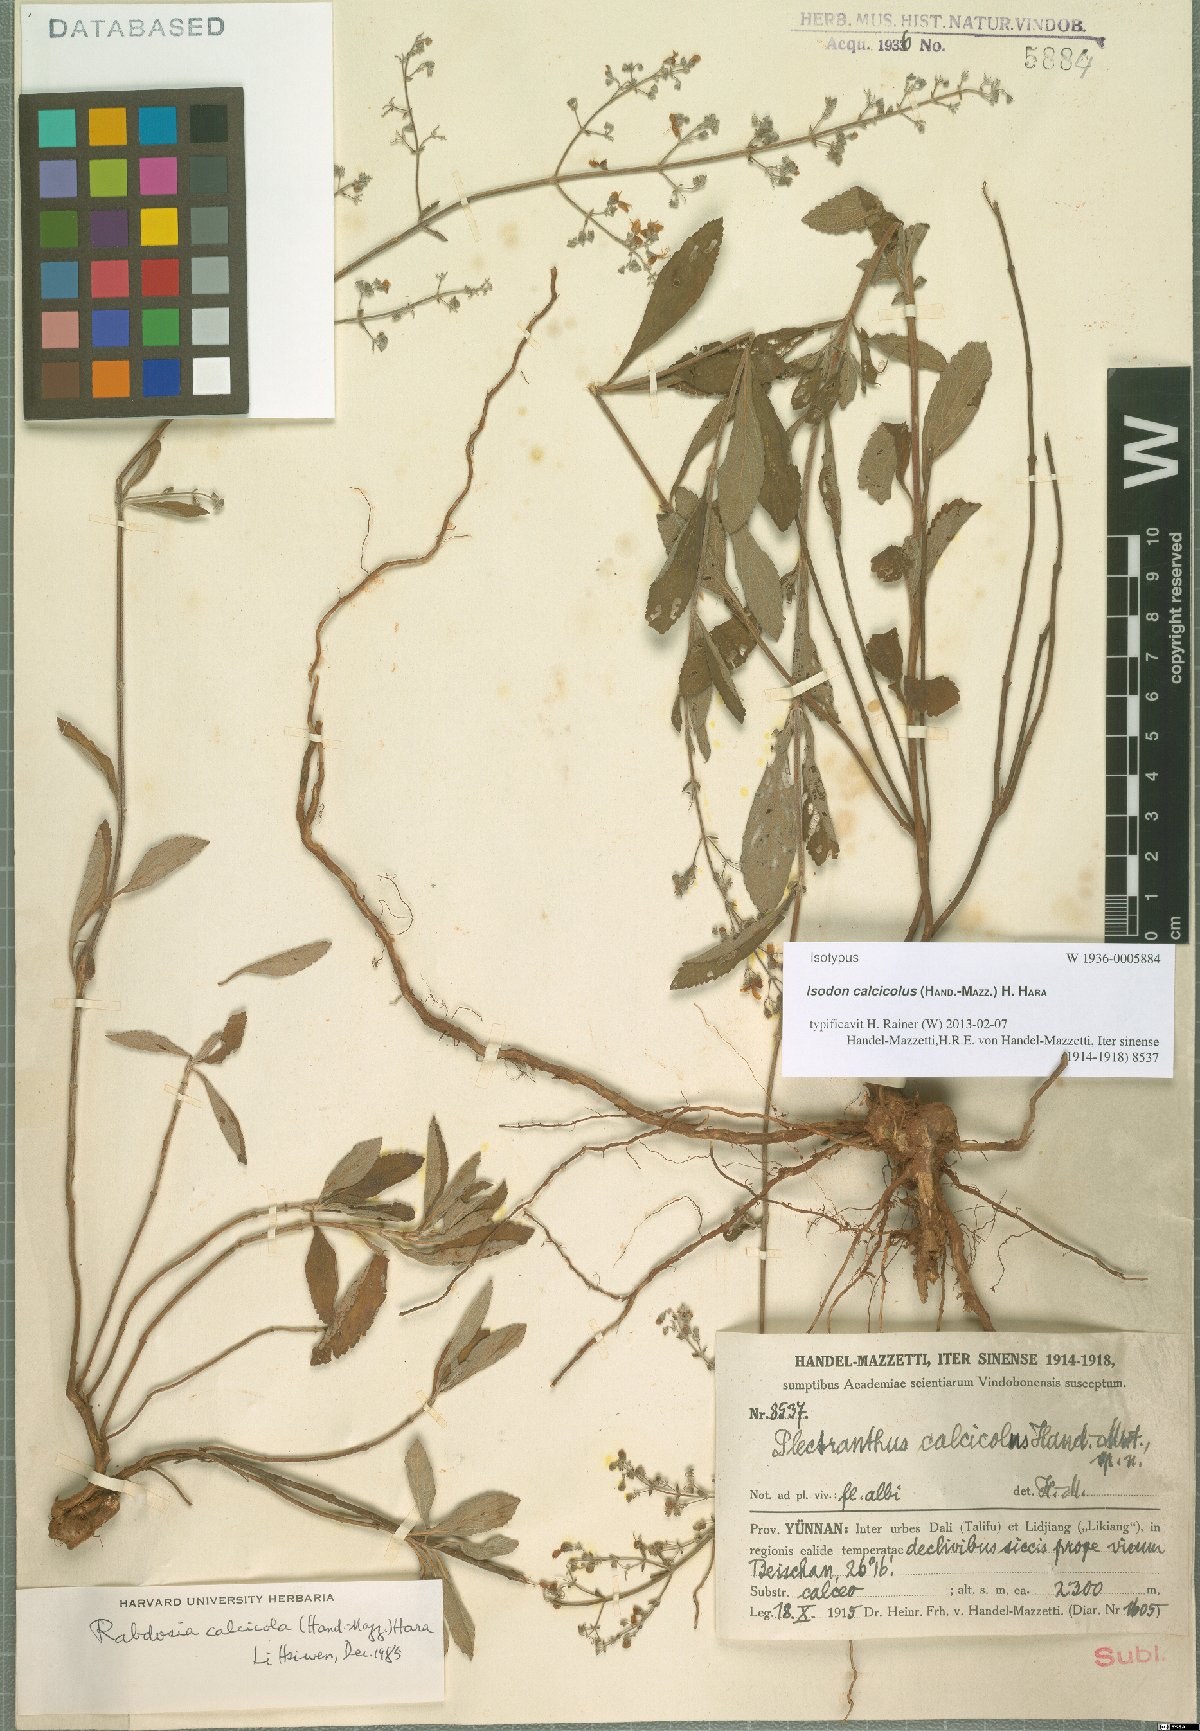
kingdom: Plantae
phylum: Tracheophyta
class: Magnoliopsida
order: Lamiales
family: Lamiaceae
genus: Isodon
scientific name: Isodon calcicola
